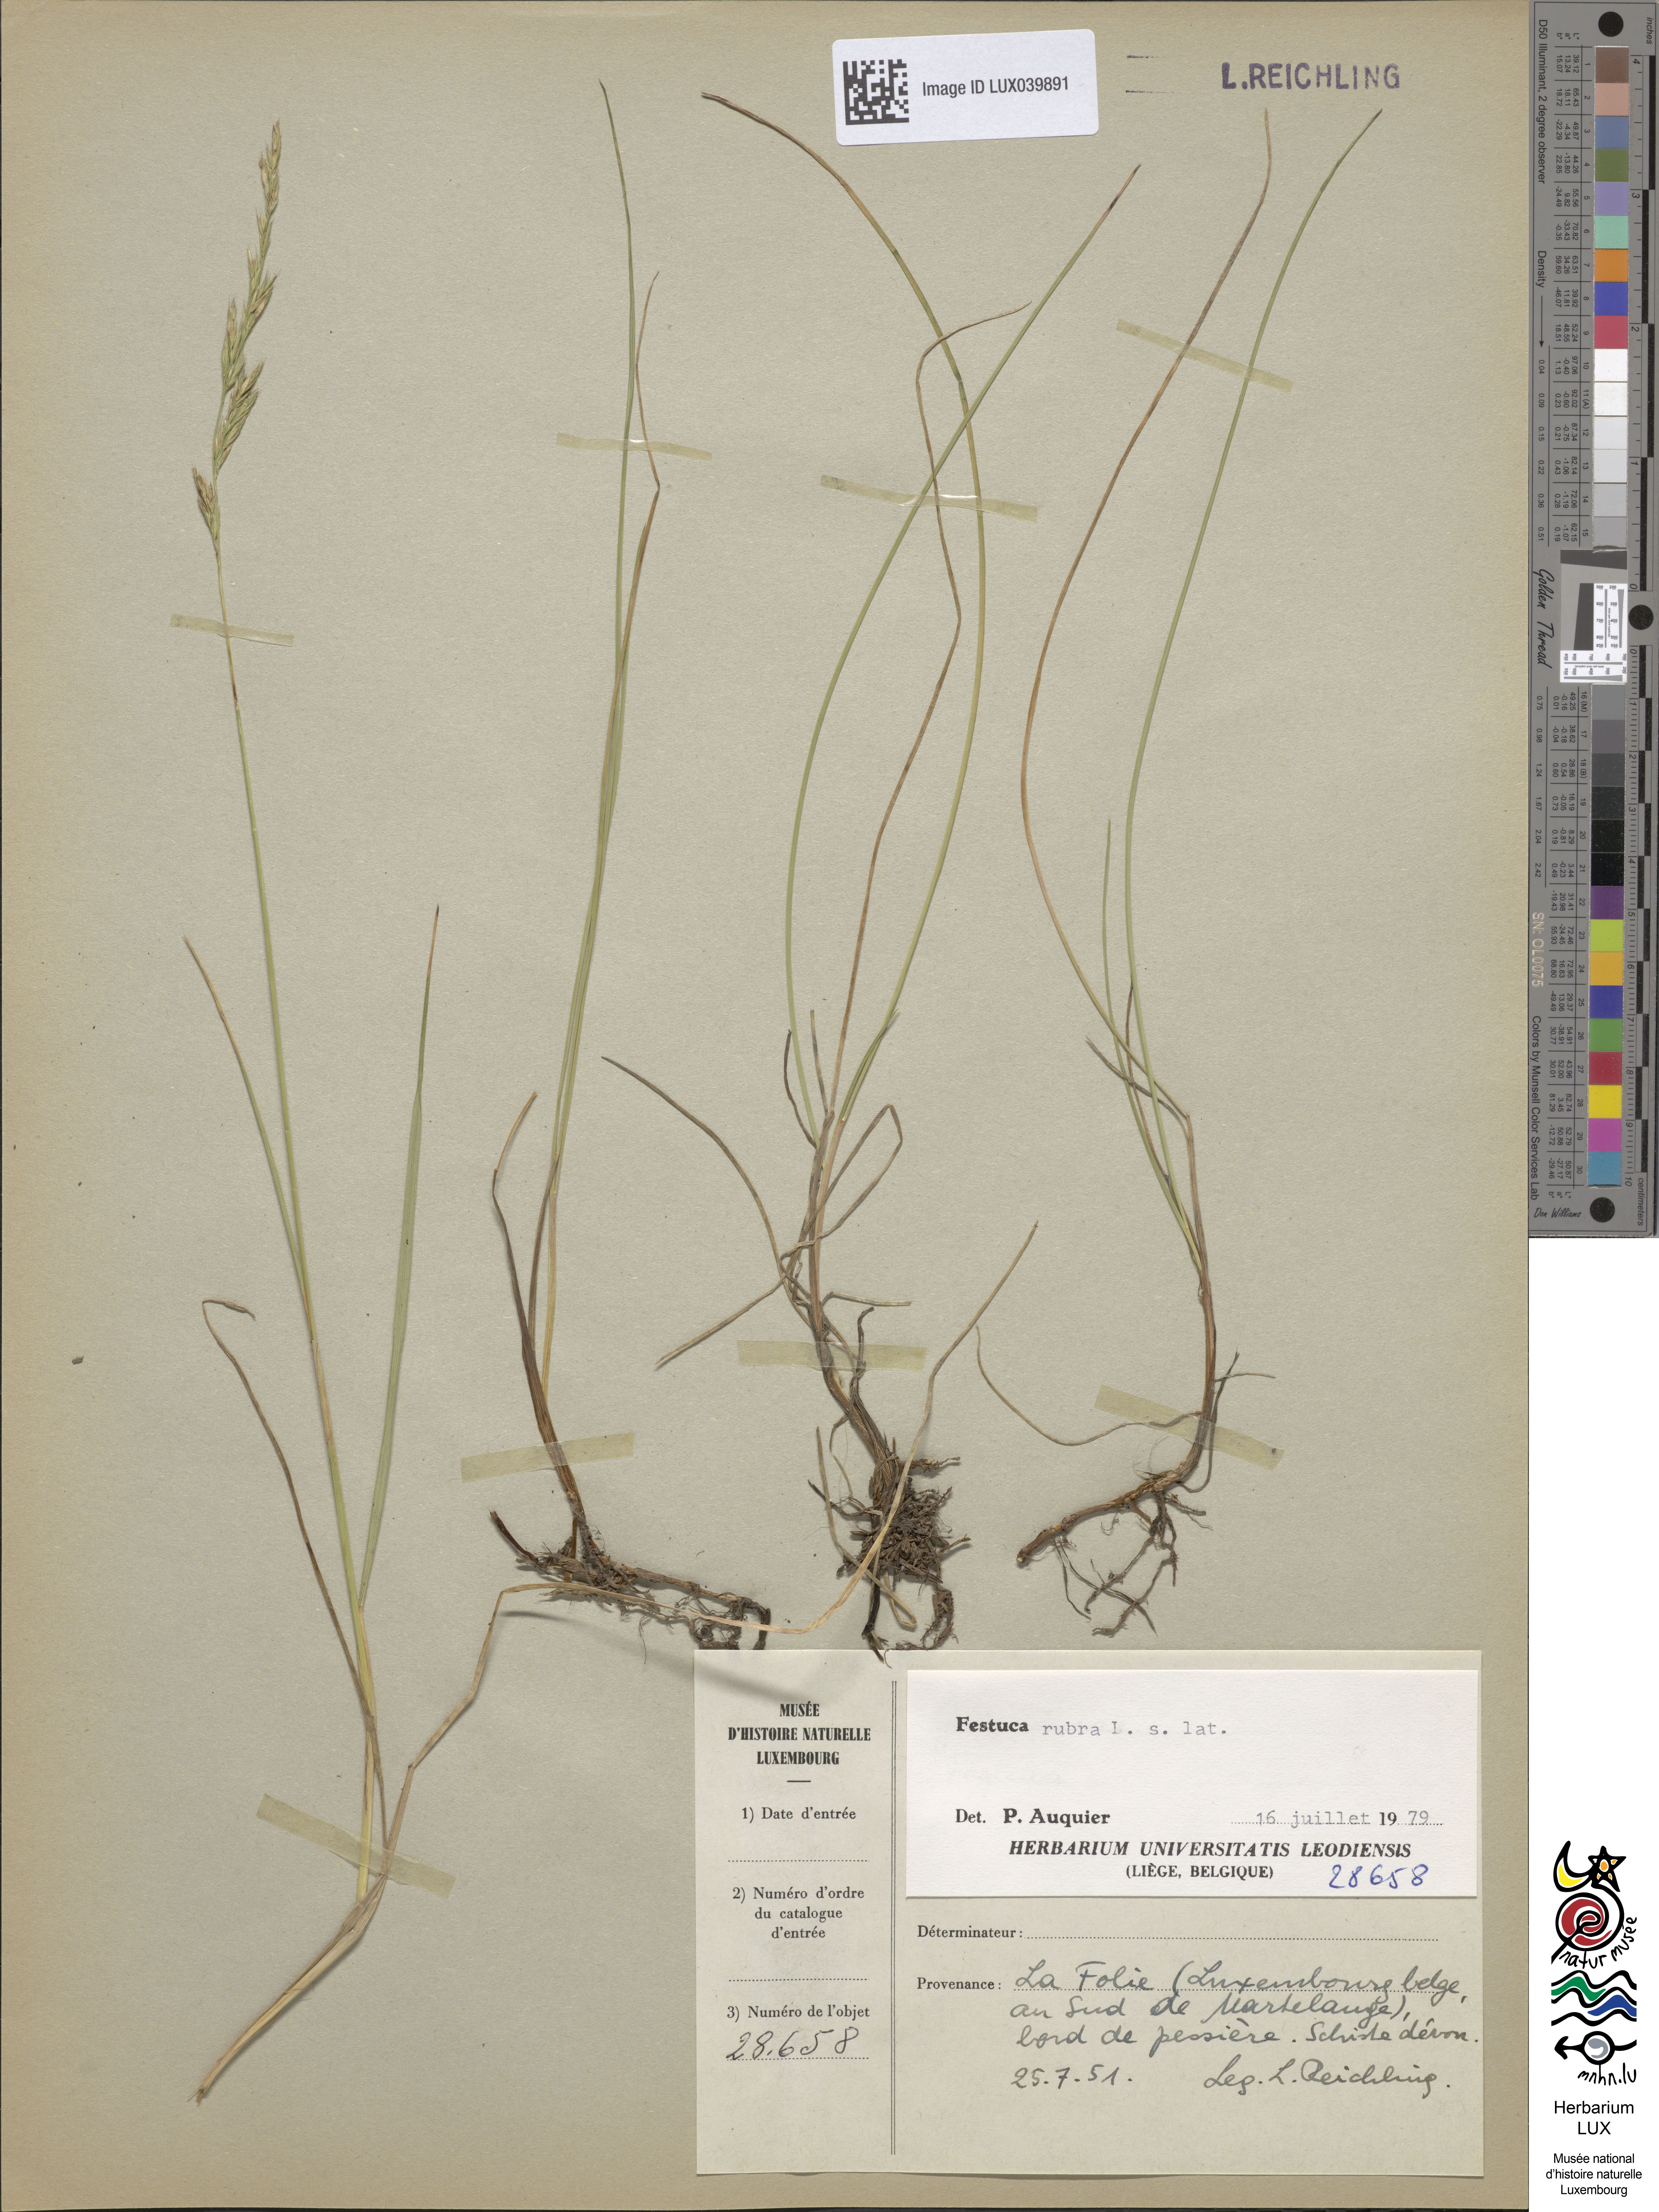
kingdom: Plantae
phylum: Tracheophyta
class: Liliopsida
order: Poales
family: Poaceae
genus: Festuca
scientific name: Festuca rubra
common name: Red fescue
